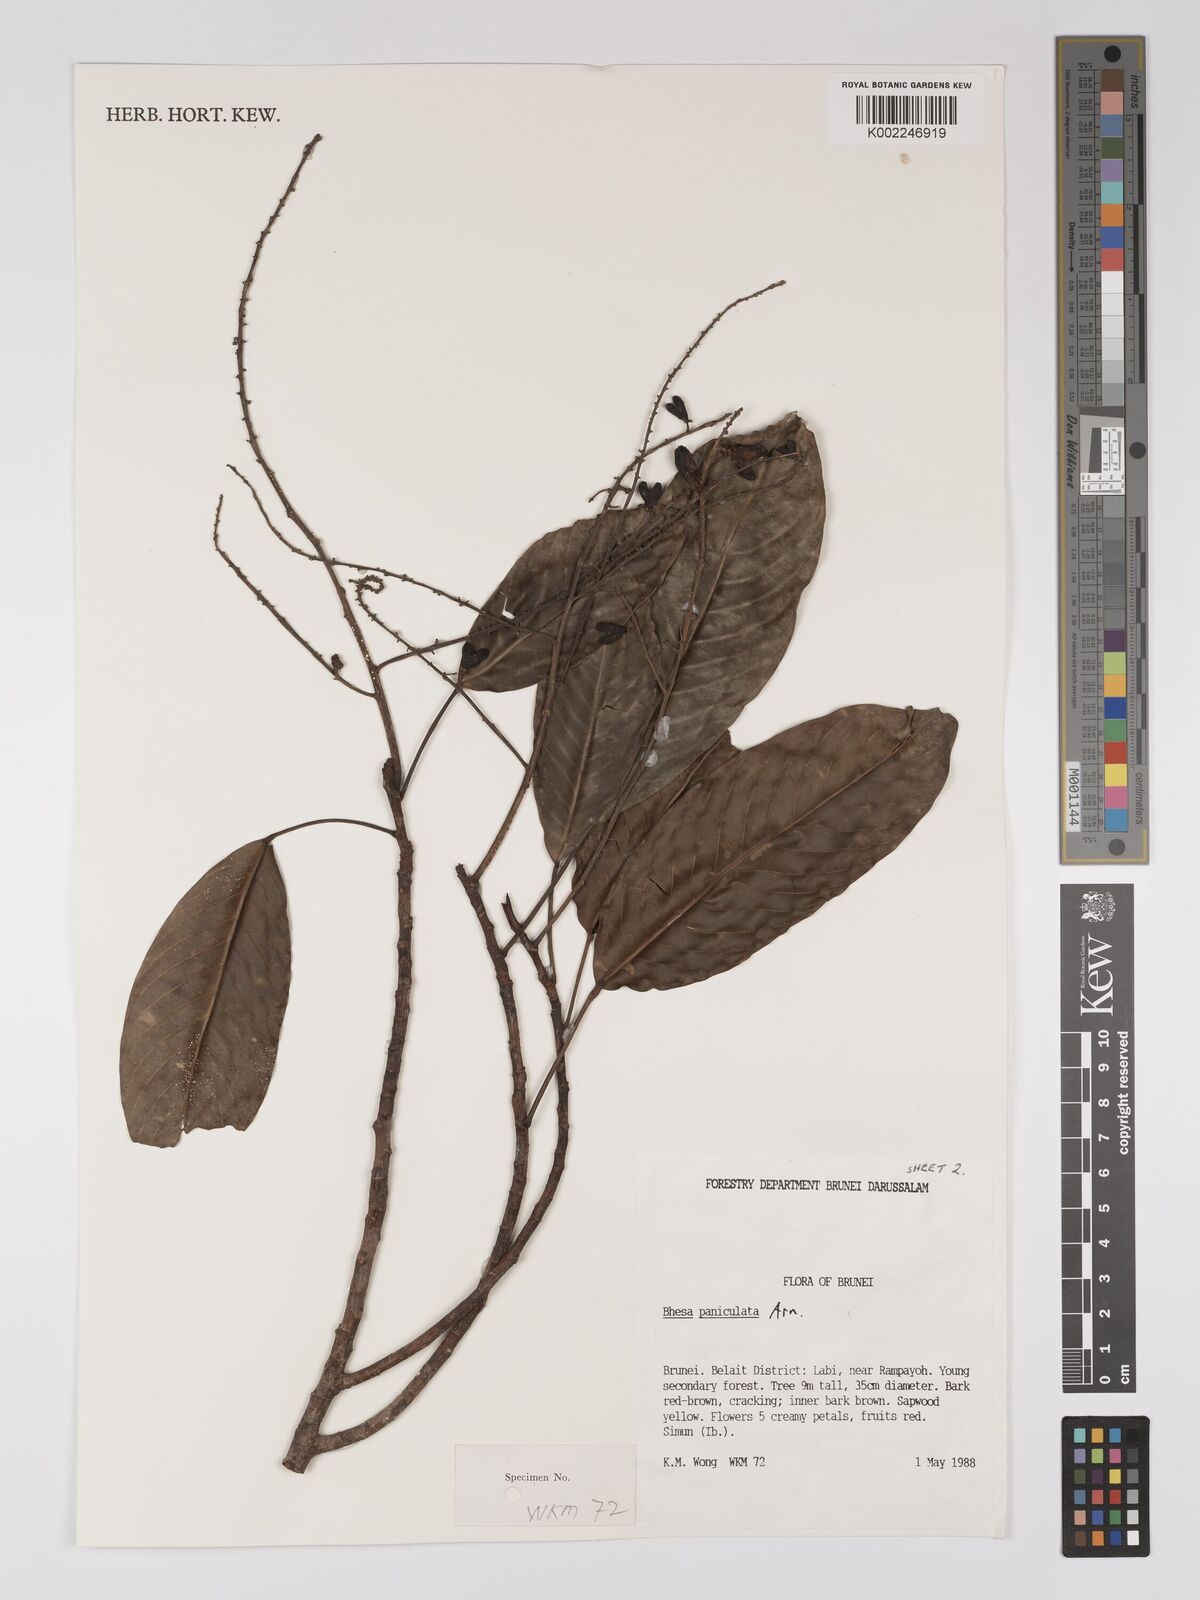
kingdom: Plantae
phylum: Tracheophyta
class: Magnoliopsida
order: Malpighiales
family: Centroplacaceae
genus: Bhesa
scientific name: Bhesa paniculata
